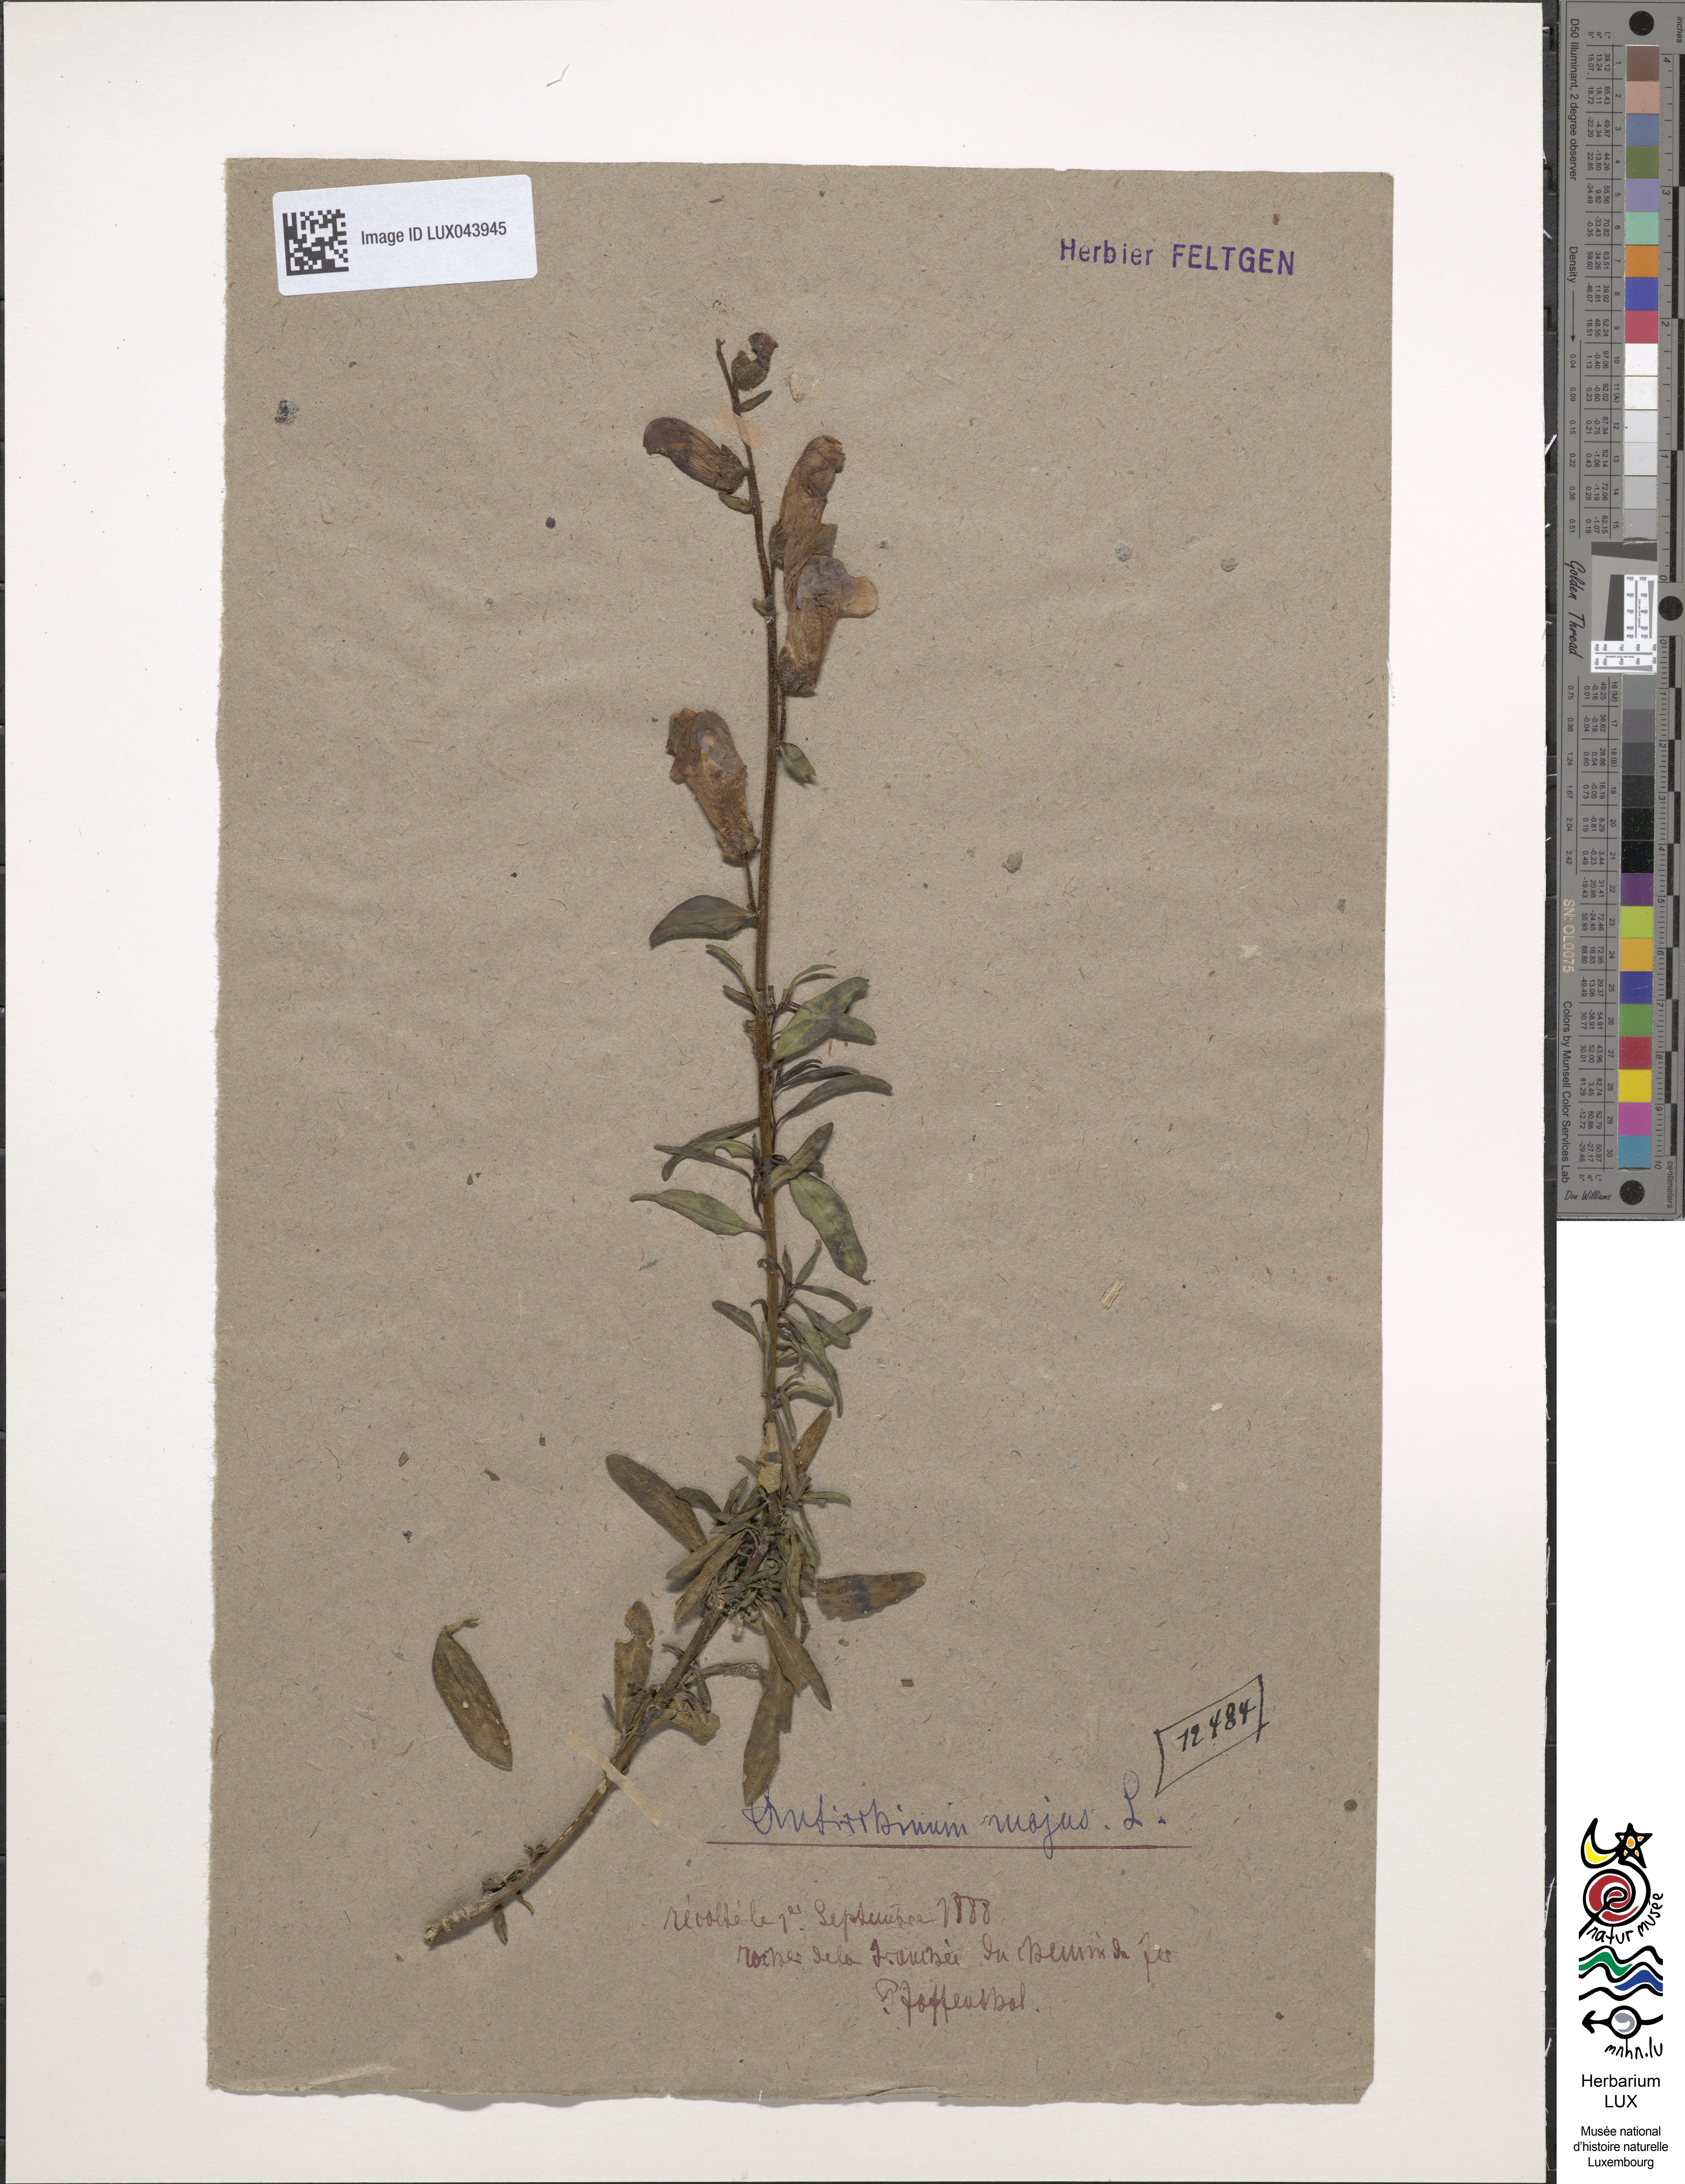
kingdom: Plantae
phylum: Tracheophyta
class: Magnoliopsida
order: Lamiales
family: Plantaginaceae
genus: Antirrhinum
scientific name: Antirrhinum majus
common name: Snapdragon
